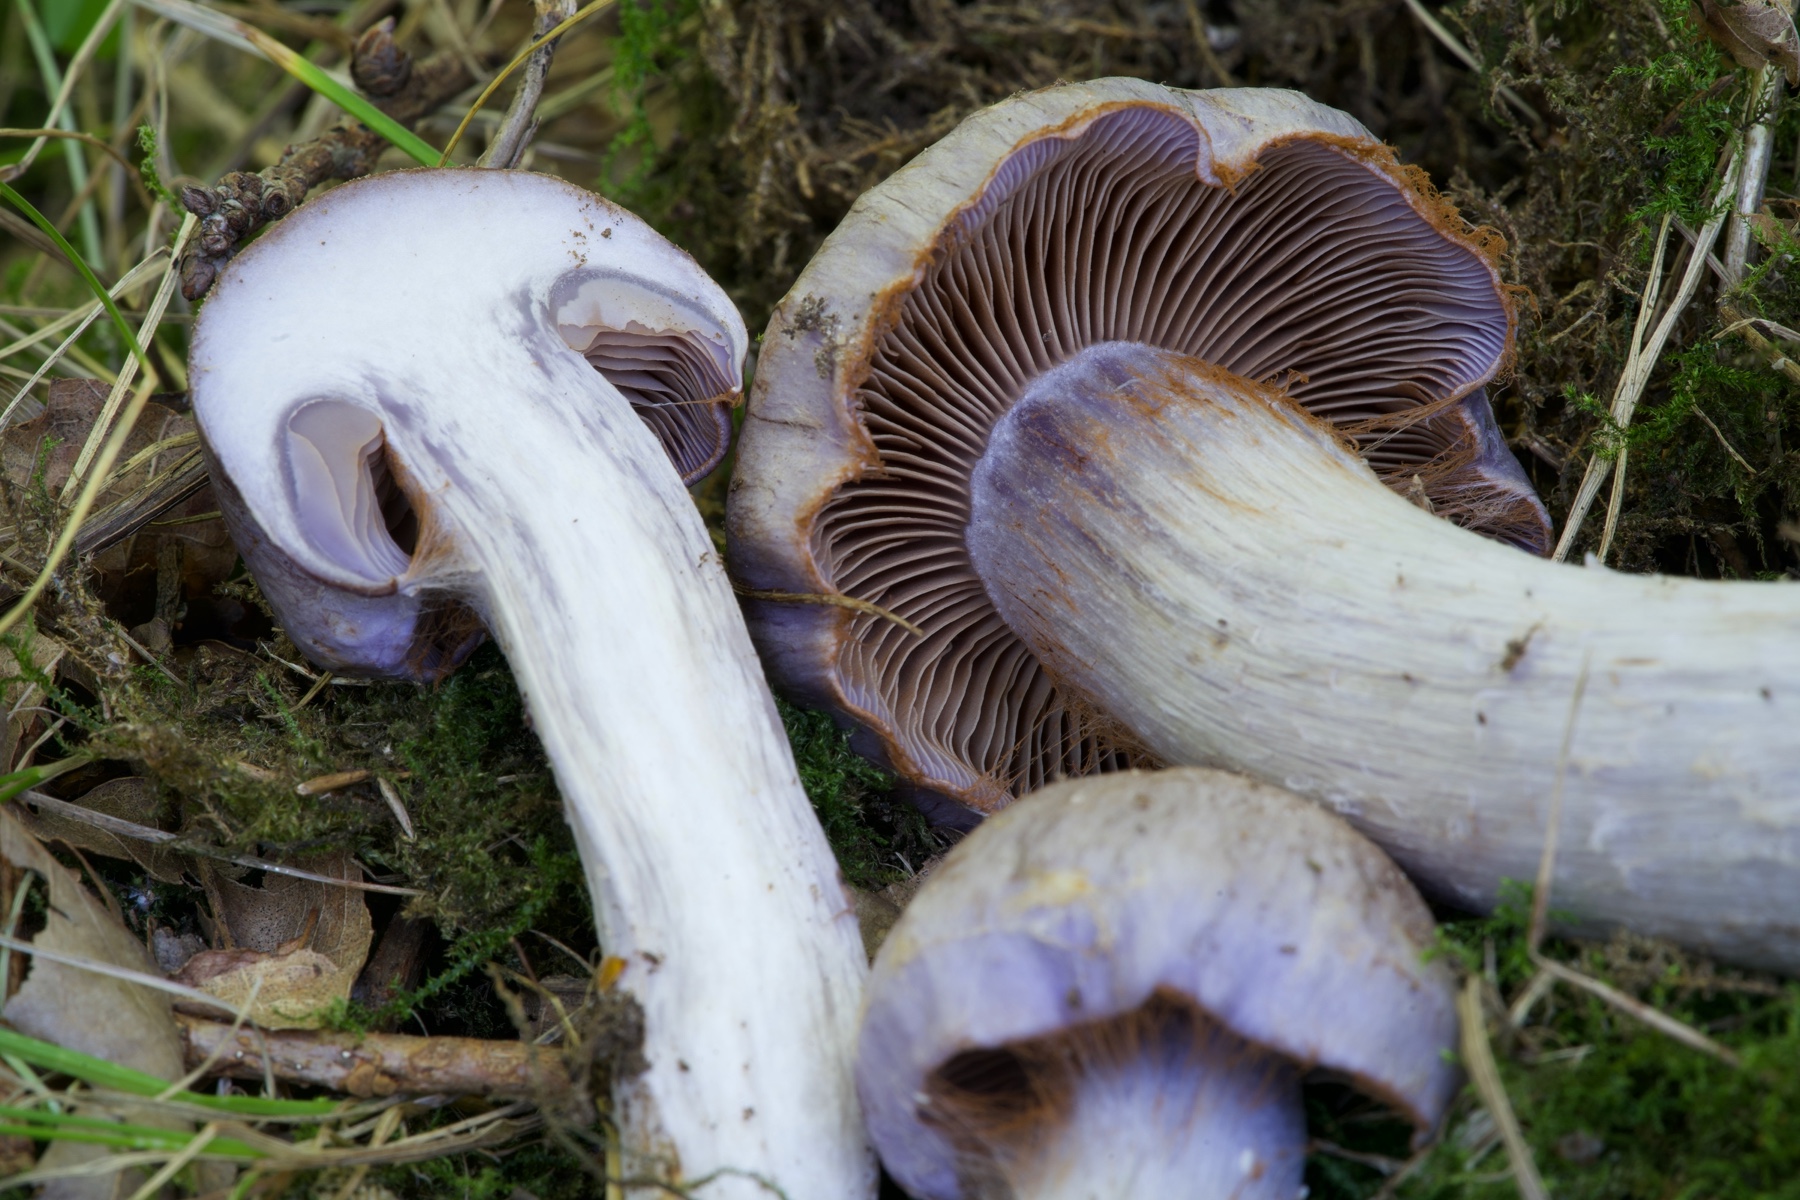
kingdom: Fungi
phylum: Basidiomycota
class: Agaricomycetes
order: Agaricales
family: Cortinariaceae
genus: Cortinarius
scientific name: Cortinarius largus
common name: violetrandet slørhat
